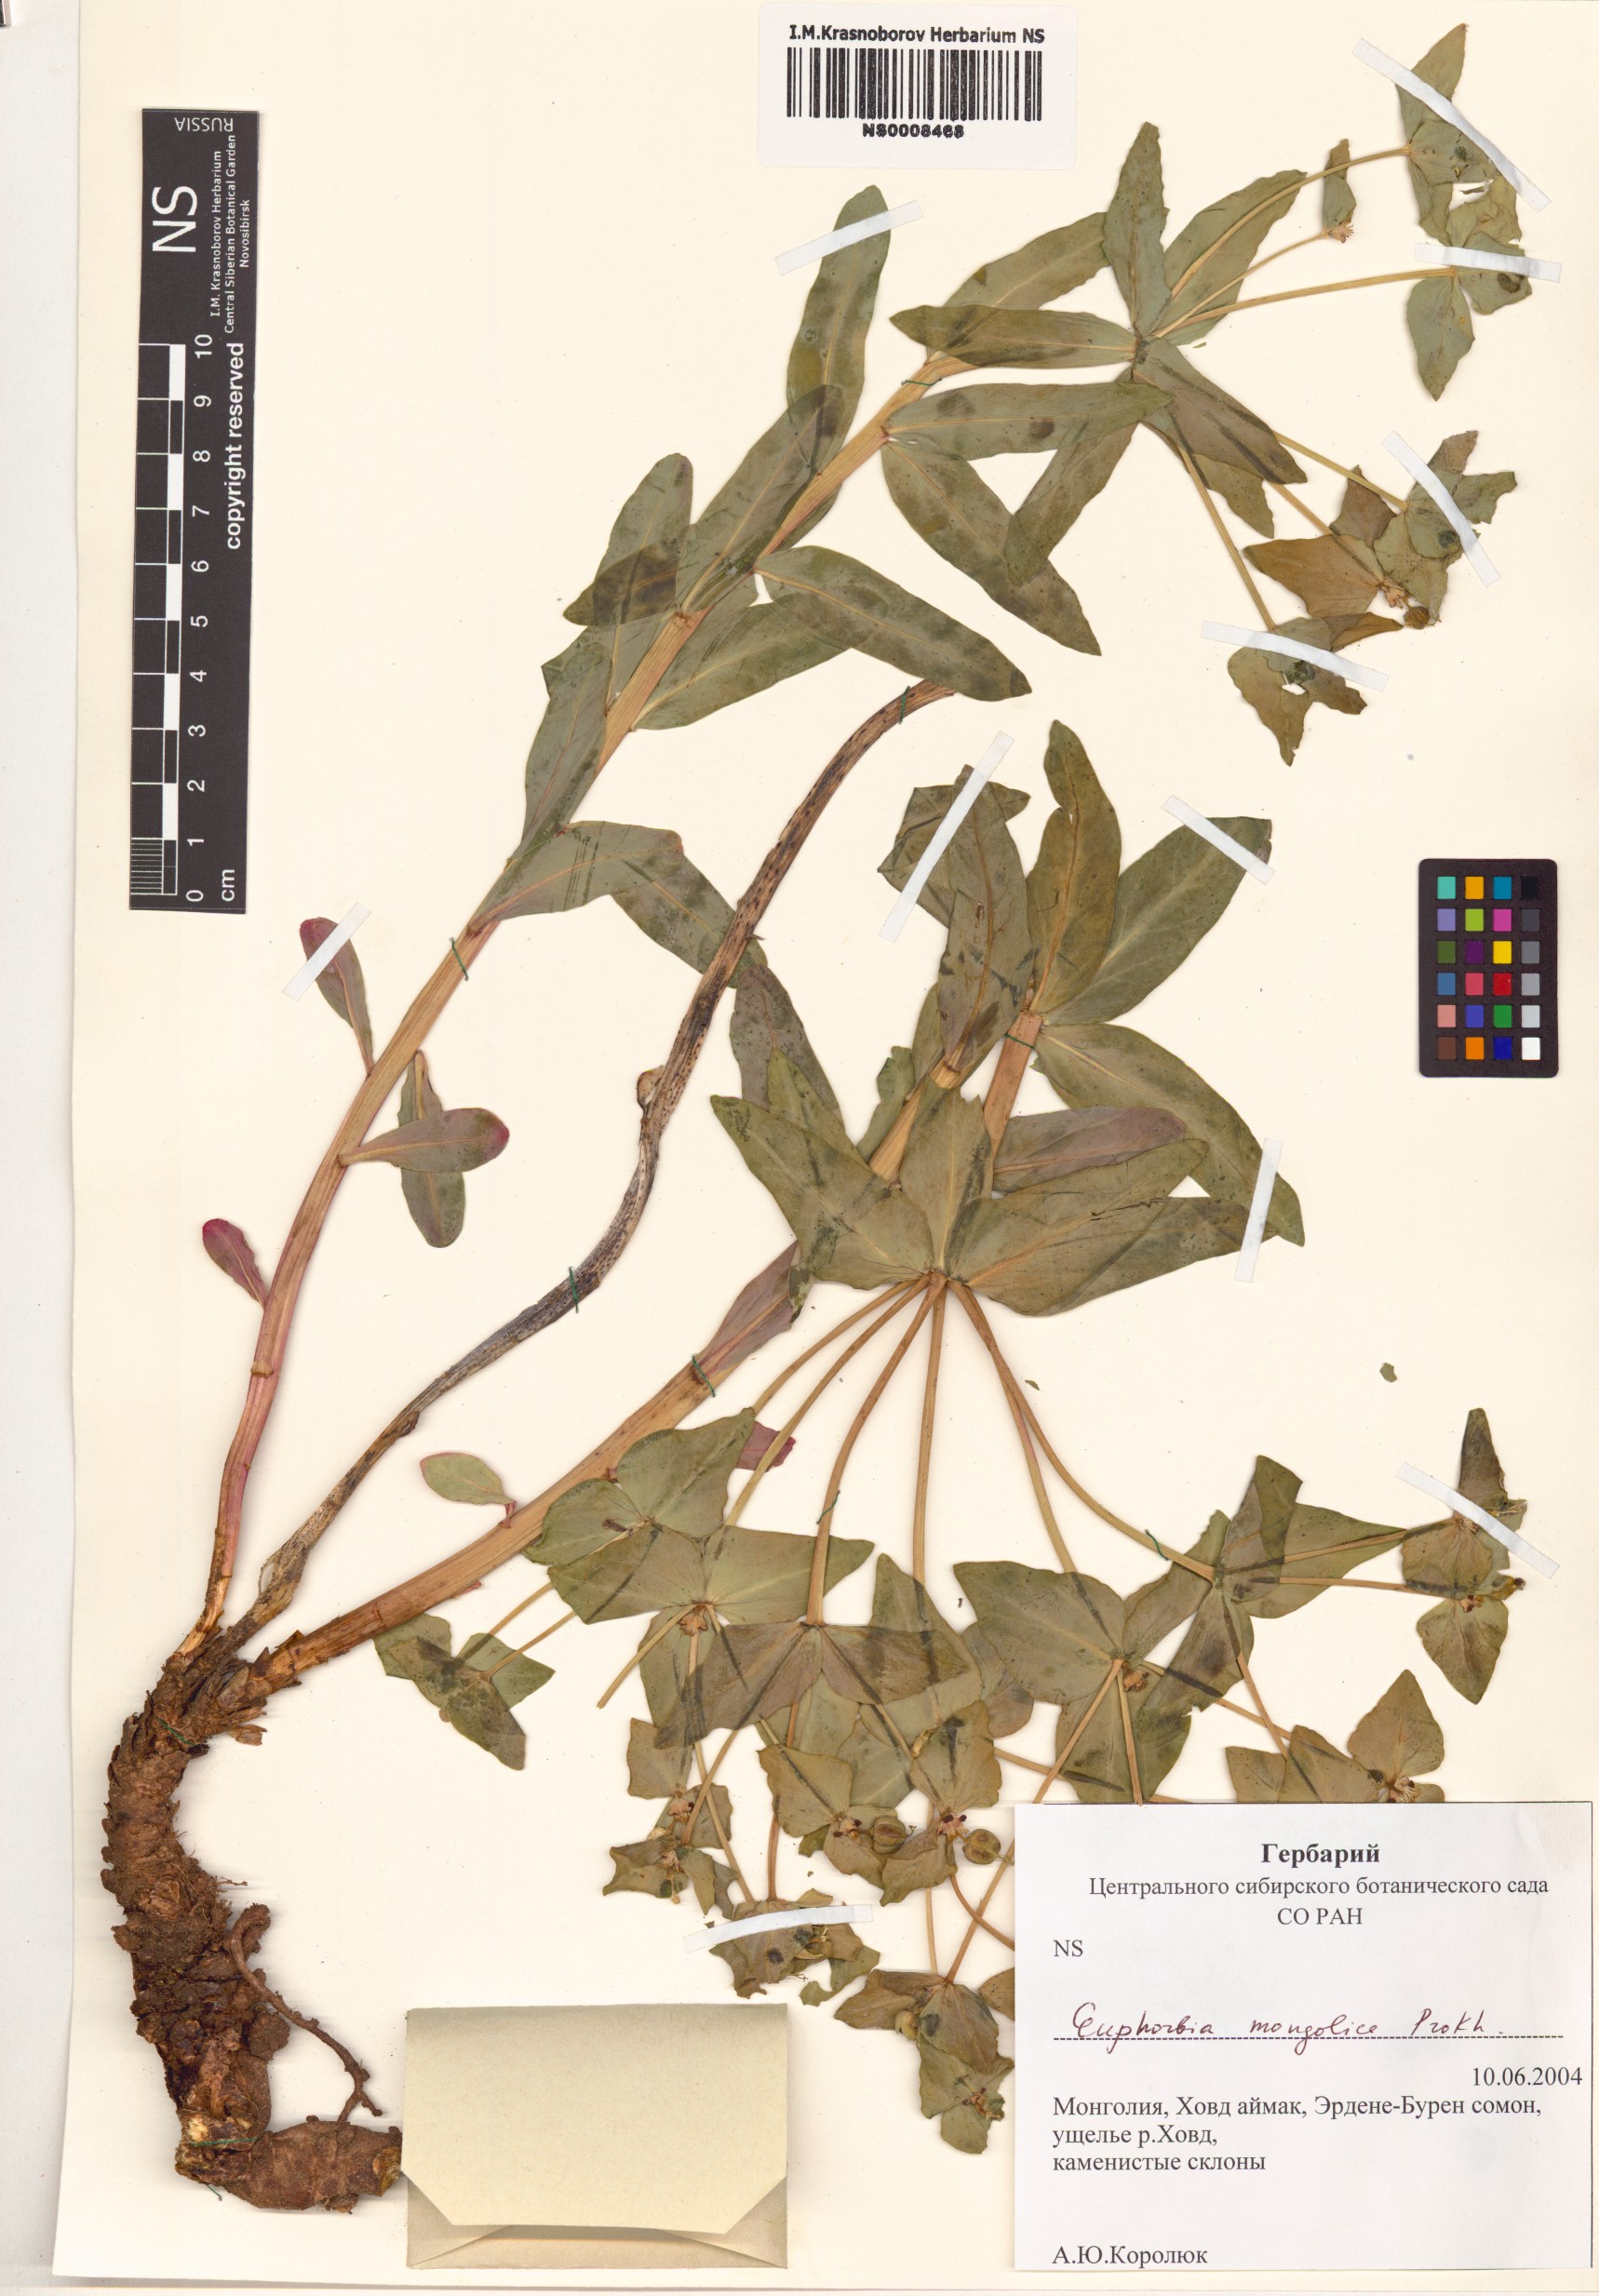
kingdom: Plantae
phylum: Tracheophyta
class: Magnoliopsida
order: Malpighiales
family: Euphorbiaceae
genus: Euphorbia
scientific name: Euphorbia mongolica
